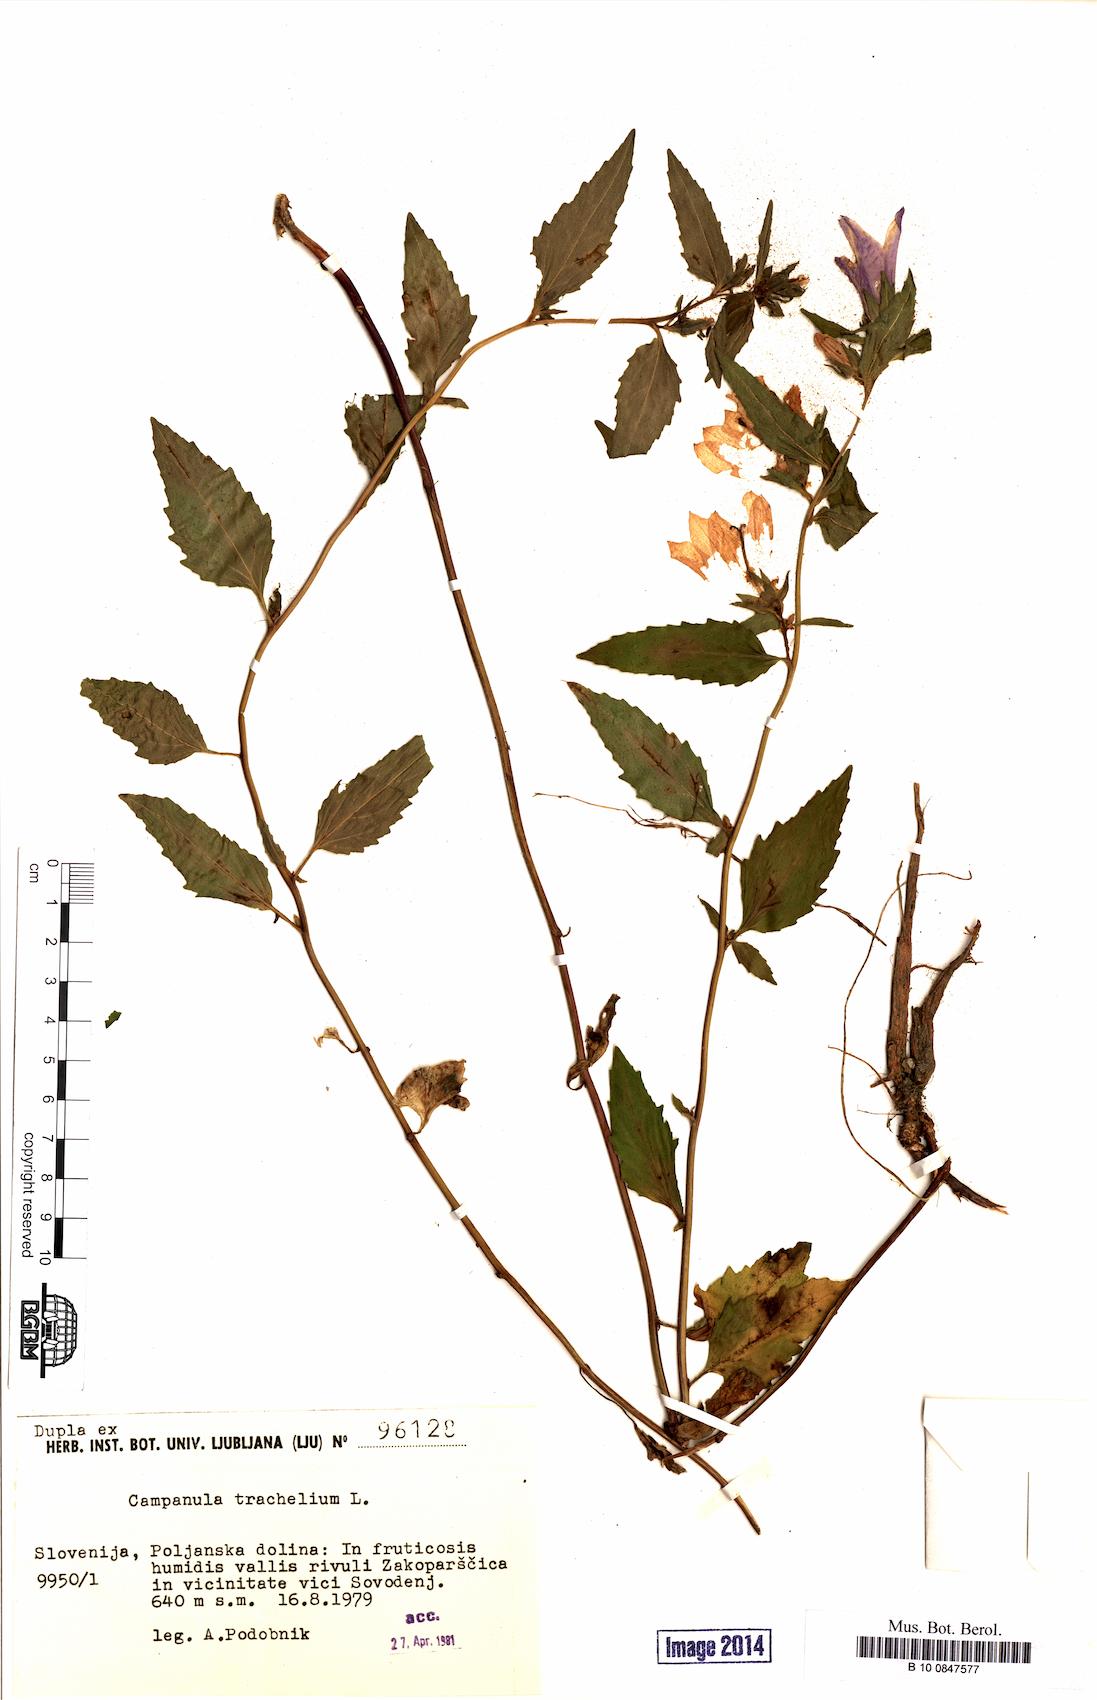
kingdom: Plantae
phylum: Tracheophyta
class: Magnoliopsida
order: Asterales
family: Campanulaceae
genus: Campanula
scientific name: Campanula trachelium
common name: Nettle-leaved bellflower
